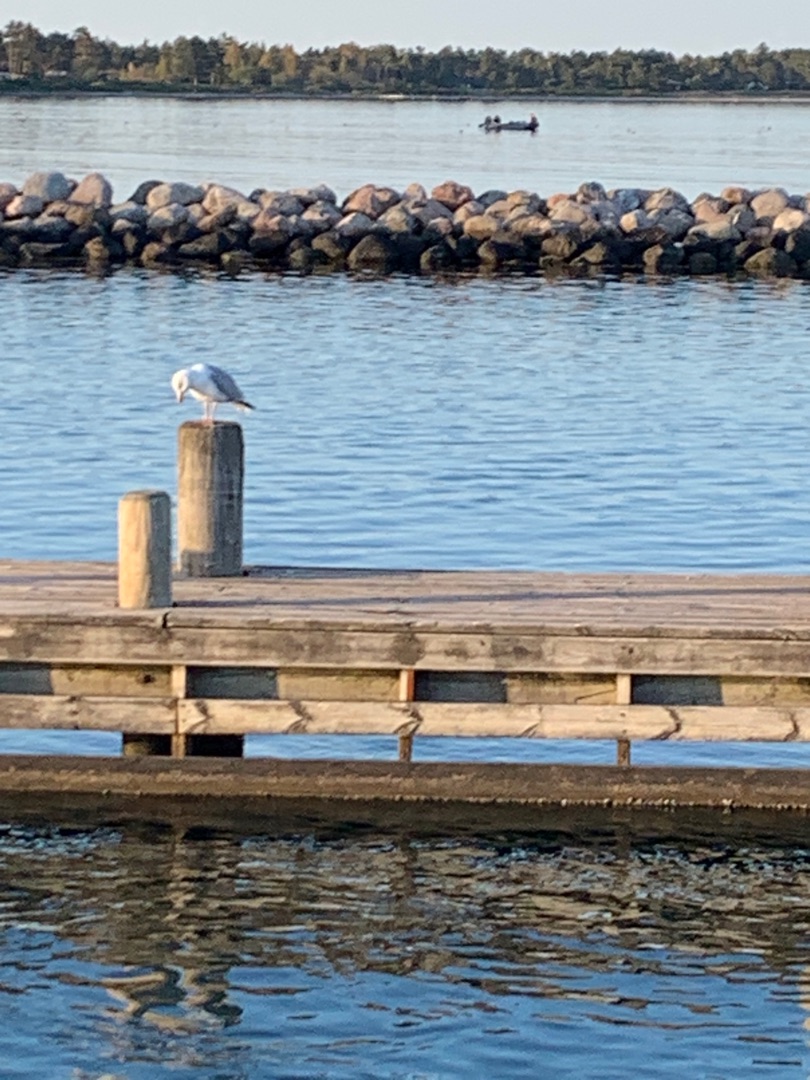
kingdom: Animalia
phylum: Chordata
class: Aves
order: Charadriiformes
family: Laridae
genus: Larus
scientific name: Larus argentatus
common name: Sølvmåge
